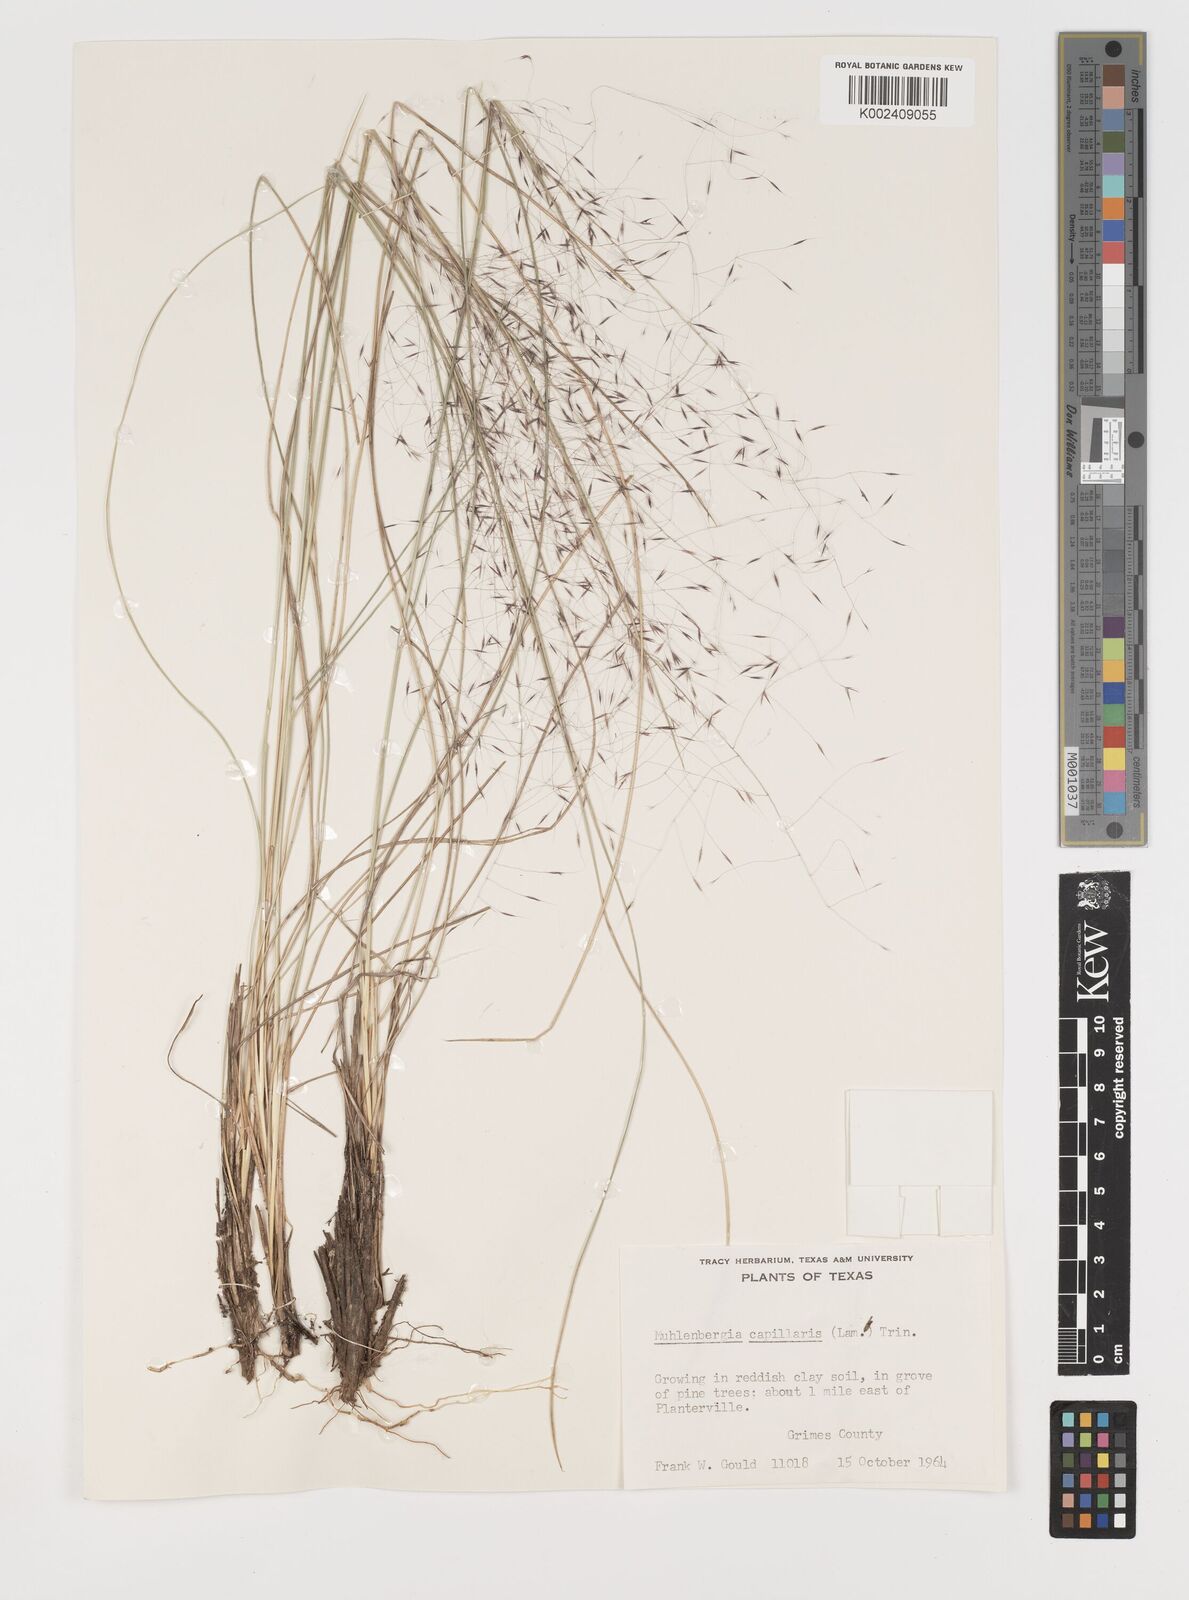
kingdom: Plantae
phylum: Tracheophyta
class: Liliopsida
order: Poales
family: Poaceae
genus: Muhlenbergia
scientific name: Muhlenbergia capillaris
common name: Purple grass
